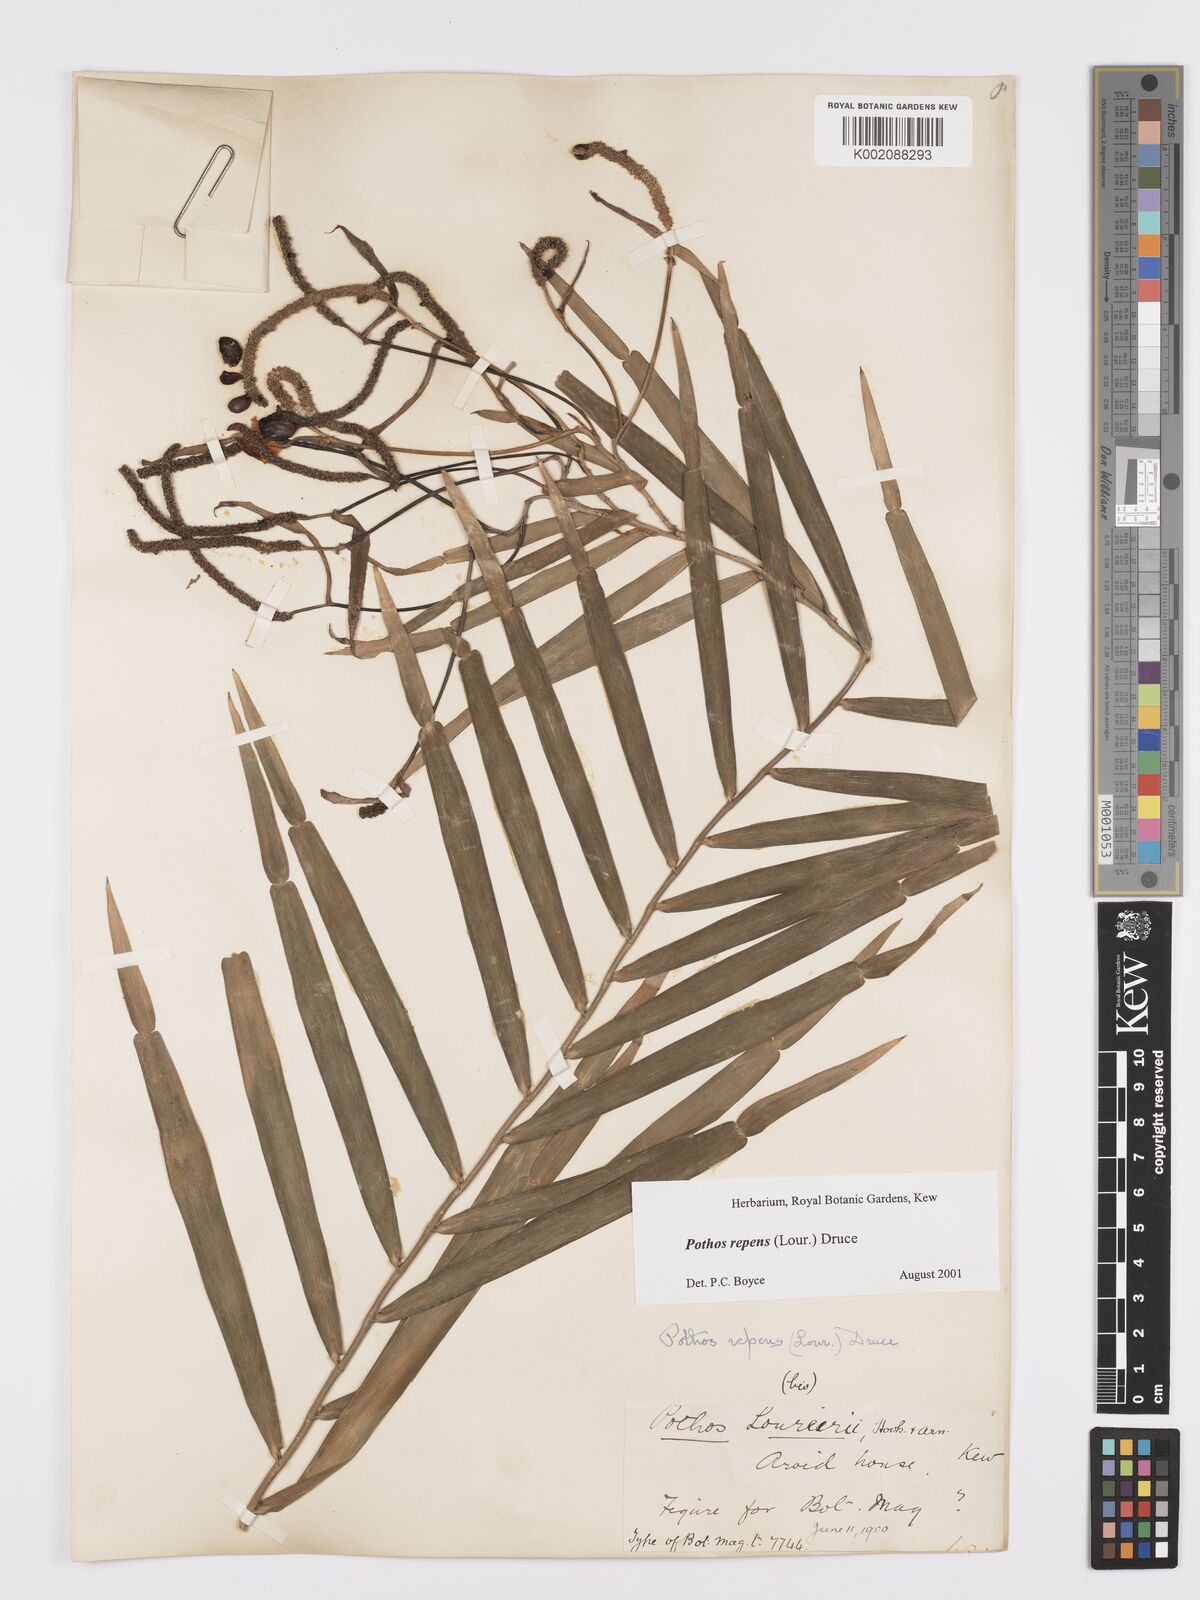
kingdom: Plantae
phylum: Tracheophyta
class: Liliopsida
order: Alismatales
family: Araceae
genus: Pothos
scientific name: Pothos repens
